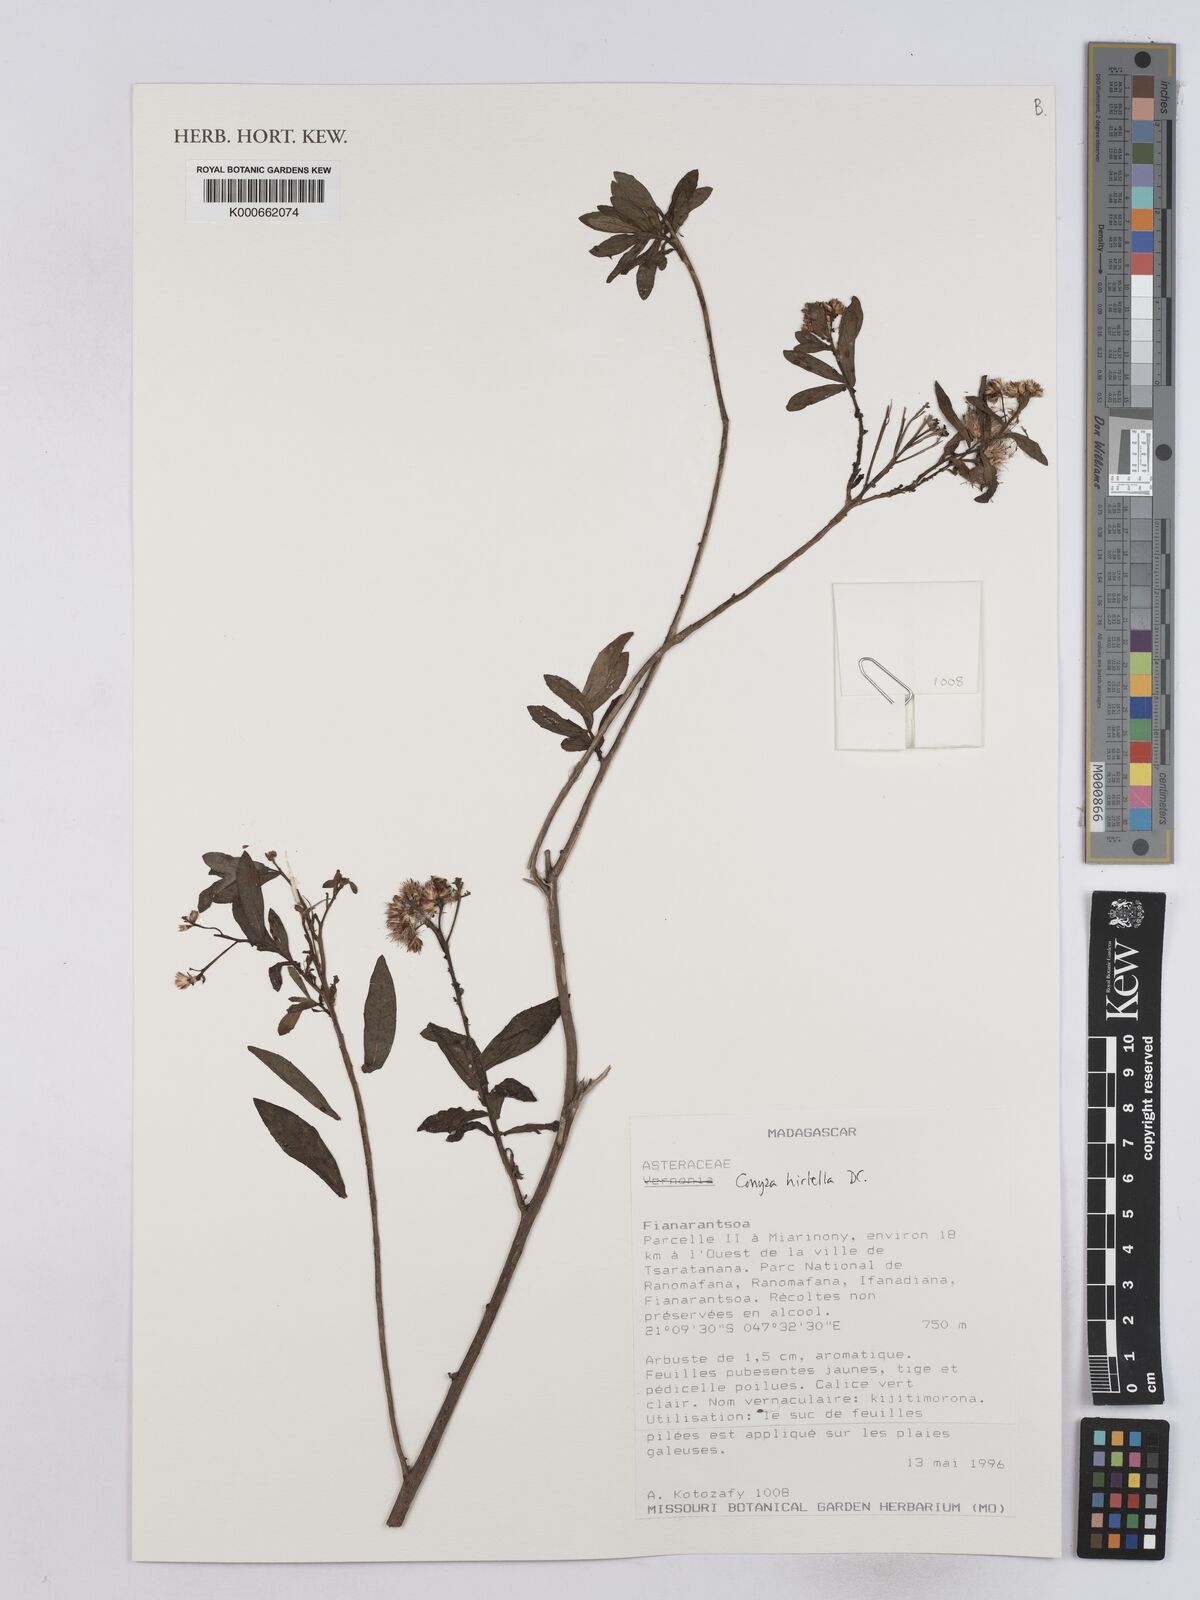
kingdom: Plantae
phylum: Tracheophyta
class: Magnoliopsida
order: Asterales
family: Asteraceae
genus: Microglossa
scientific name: Microglossa psiadioides
